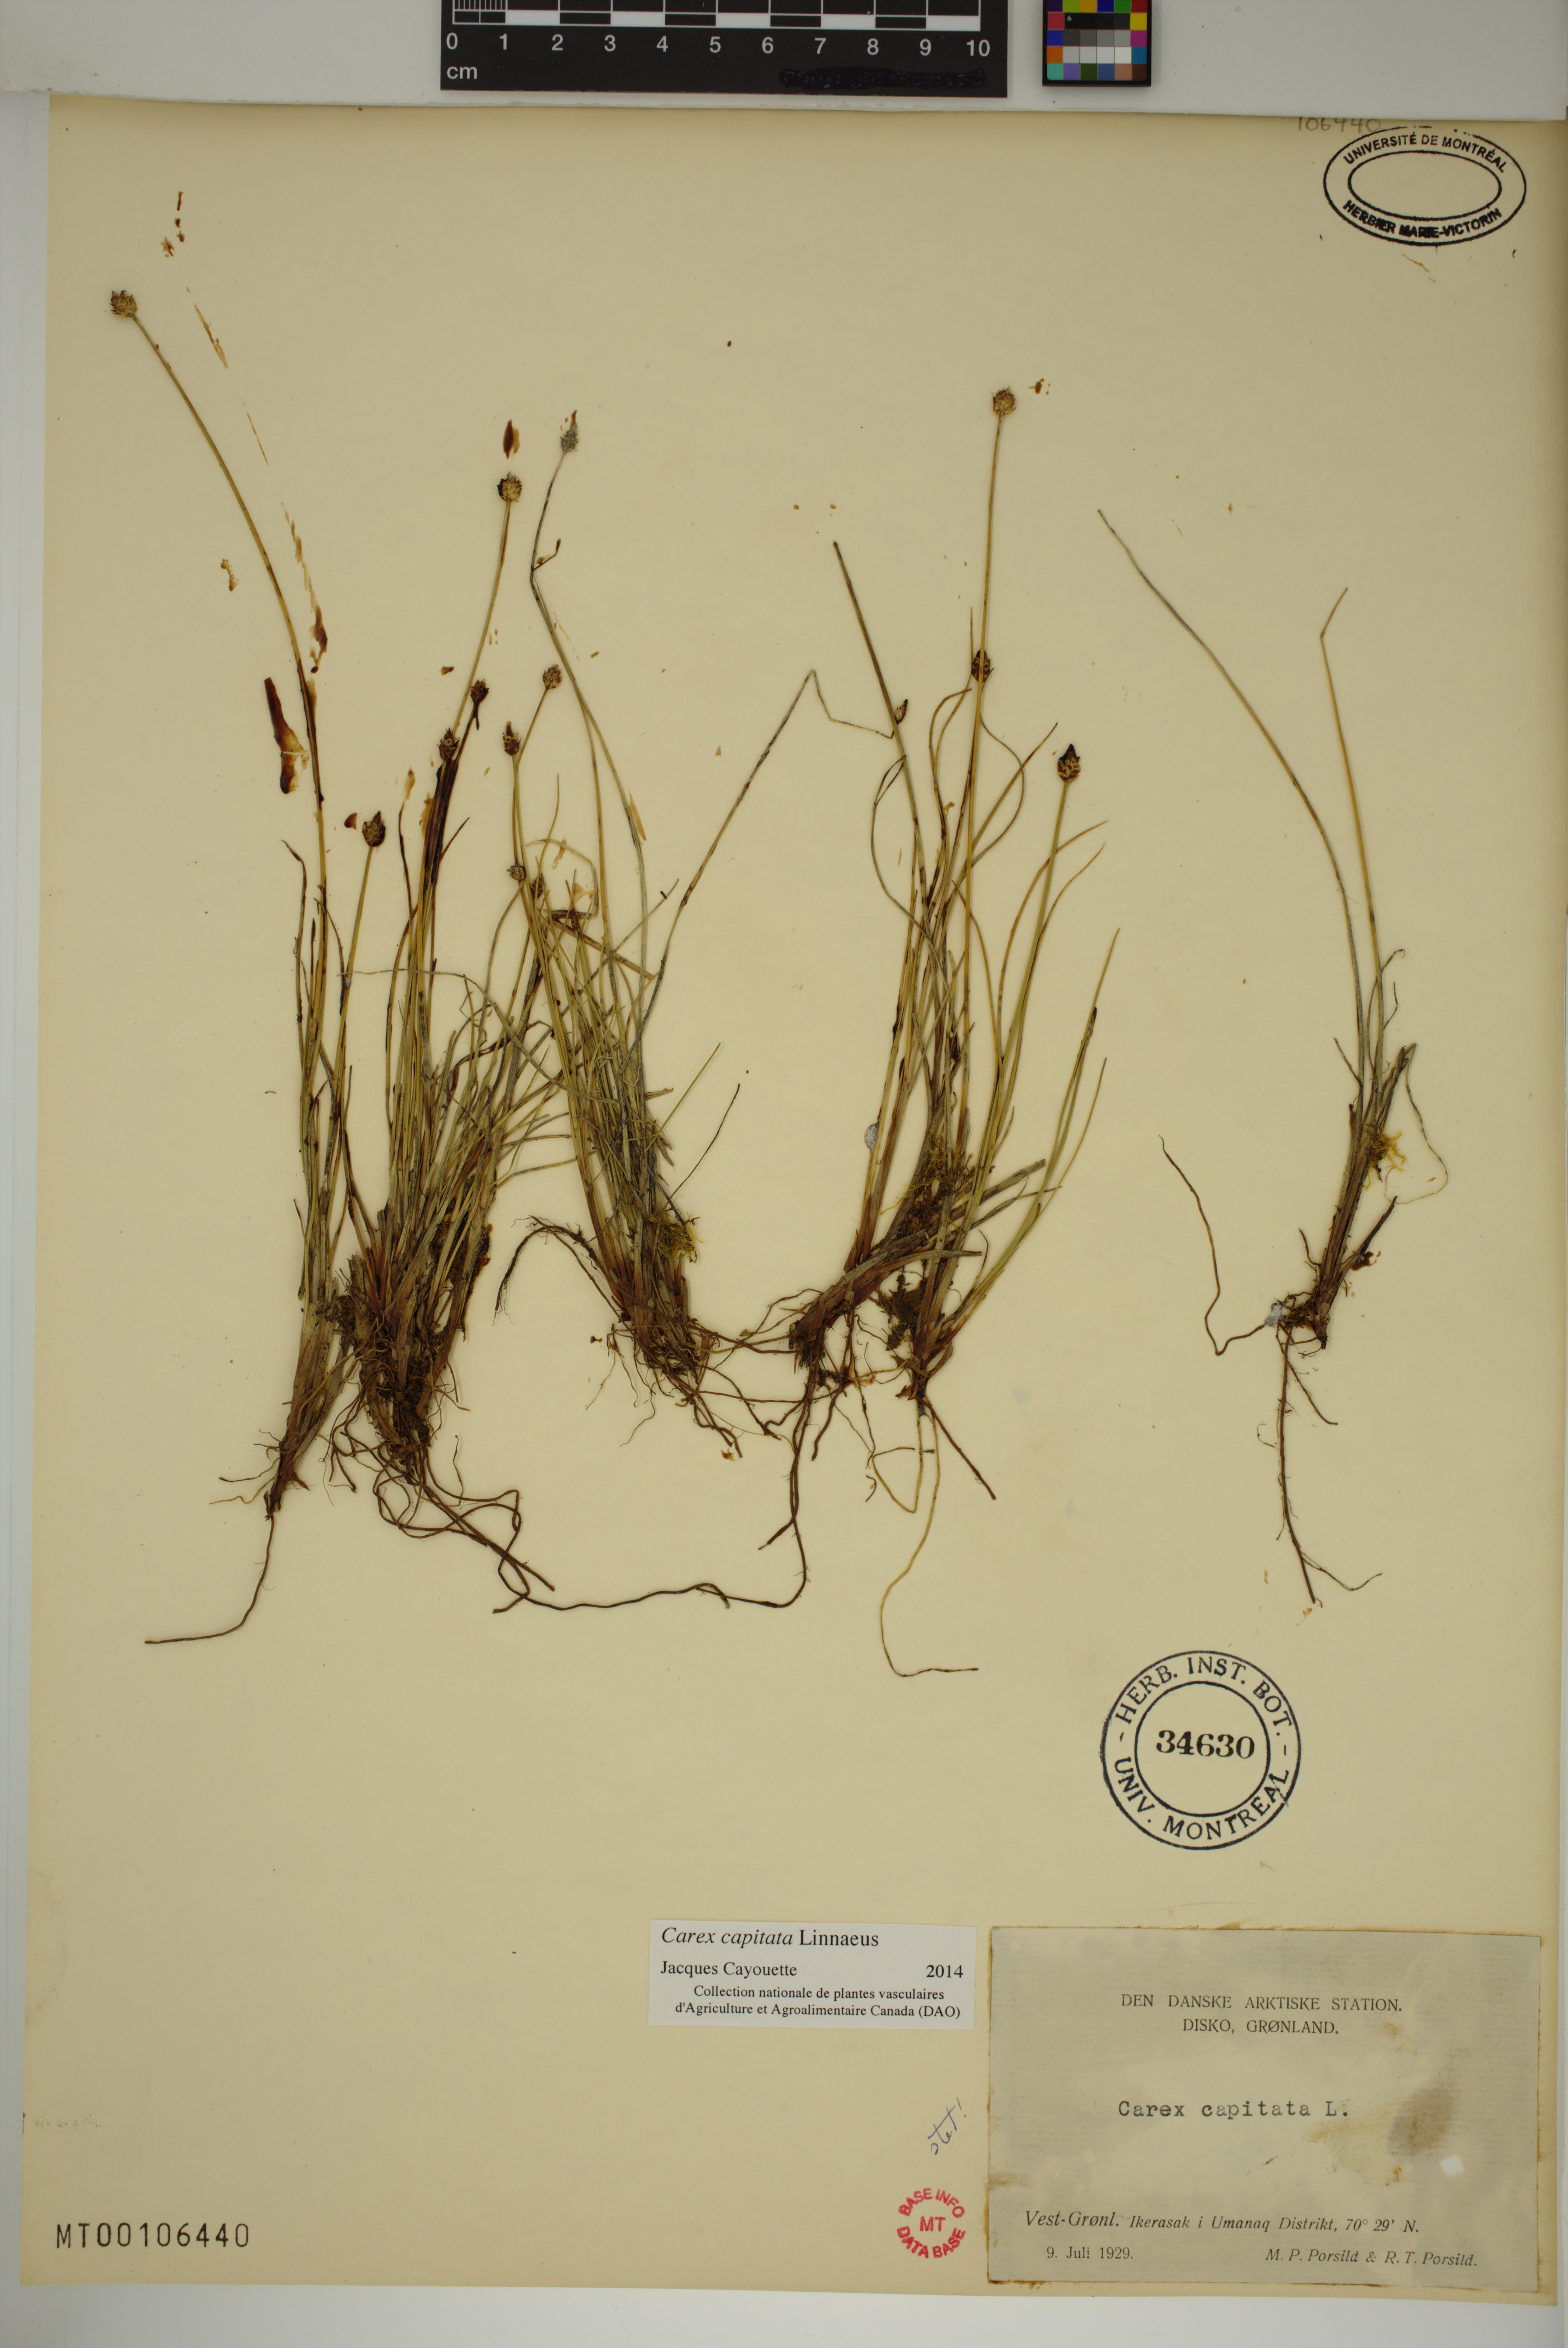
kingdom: Plantae
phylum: Tracheophyta
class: Liliopsida
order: Poales
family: Cyperaceae
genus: Carex
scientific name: Carex capitata
